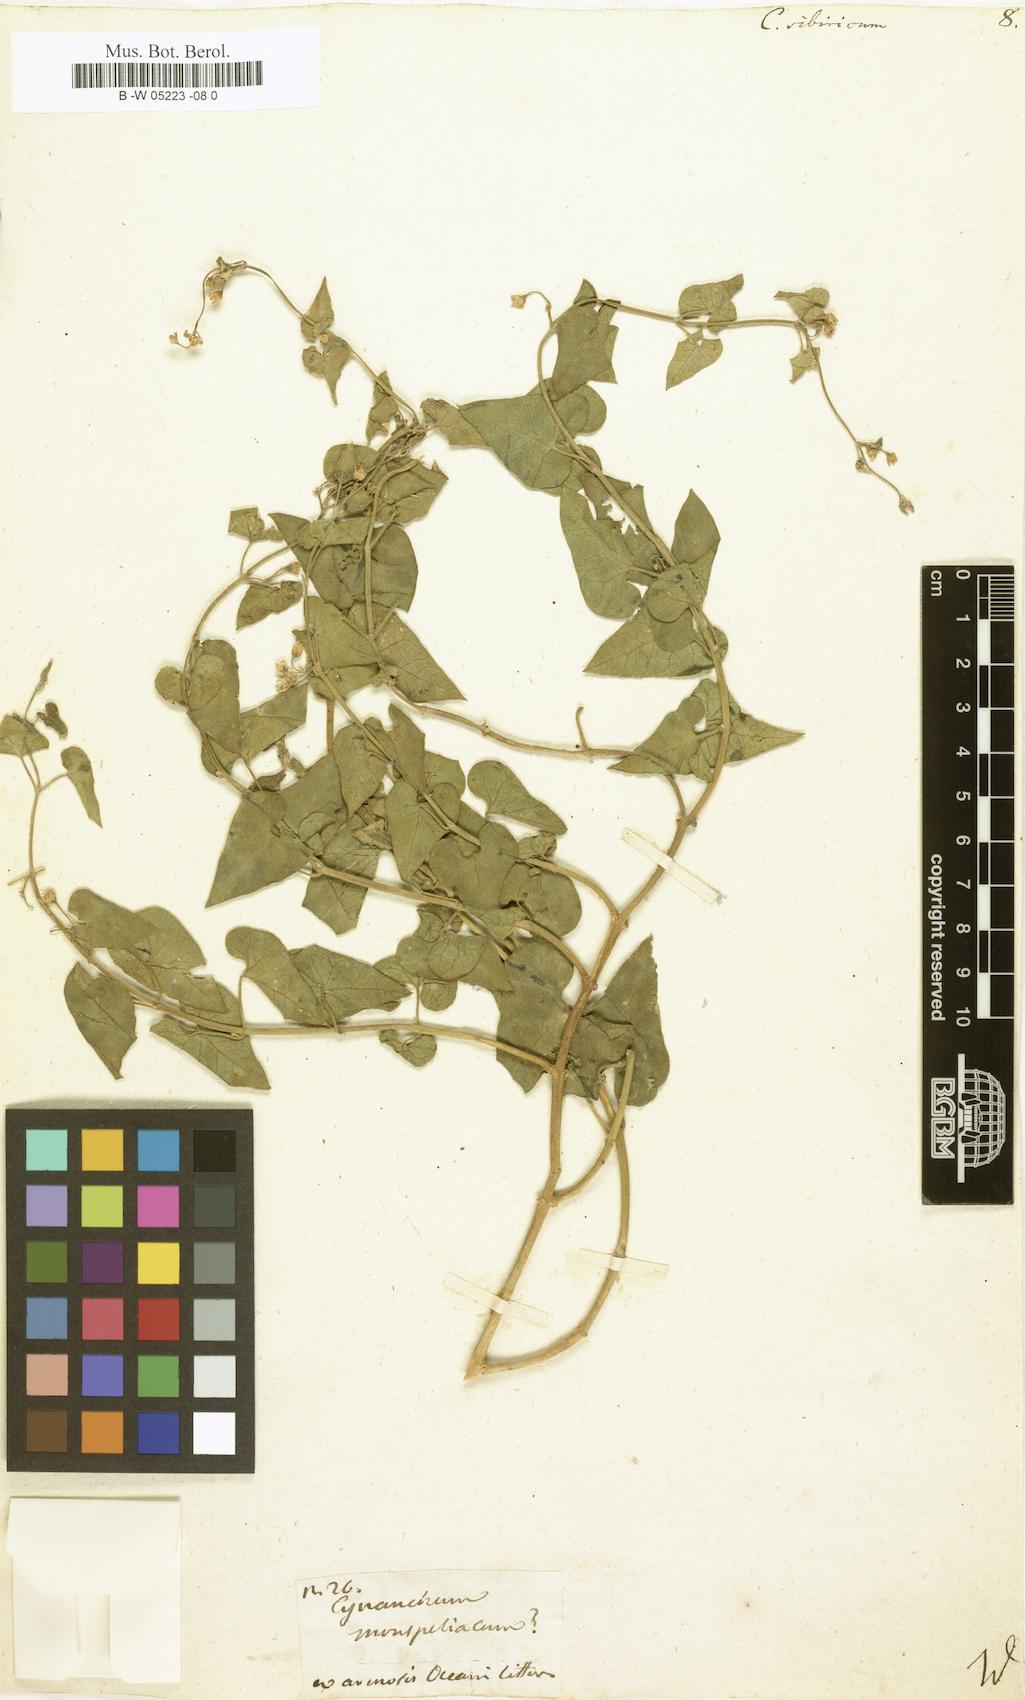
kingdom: Plantae
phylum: Tracheophyta
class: Magnoliopsida
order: Gentianales
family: Apocynaceae
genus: Cynanchum
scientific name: Cynanchum
